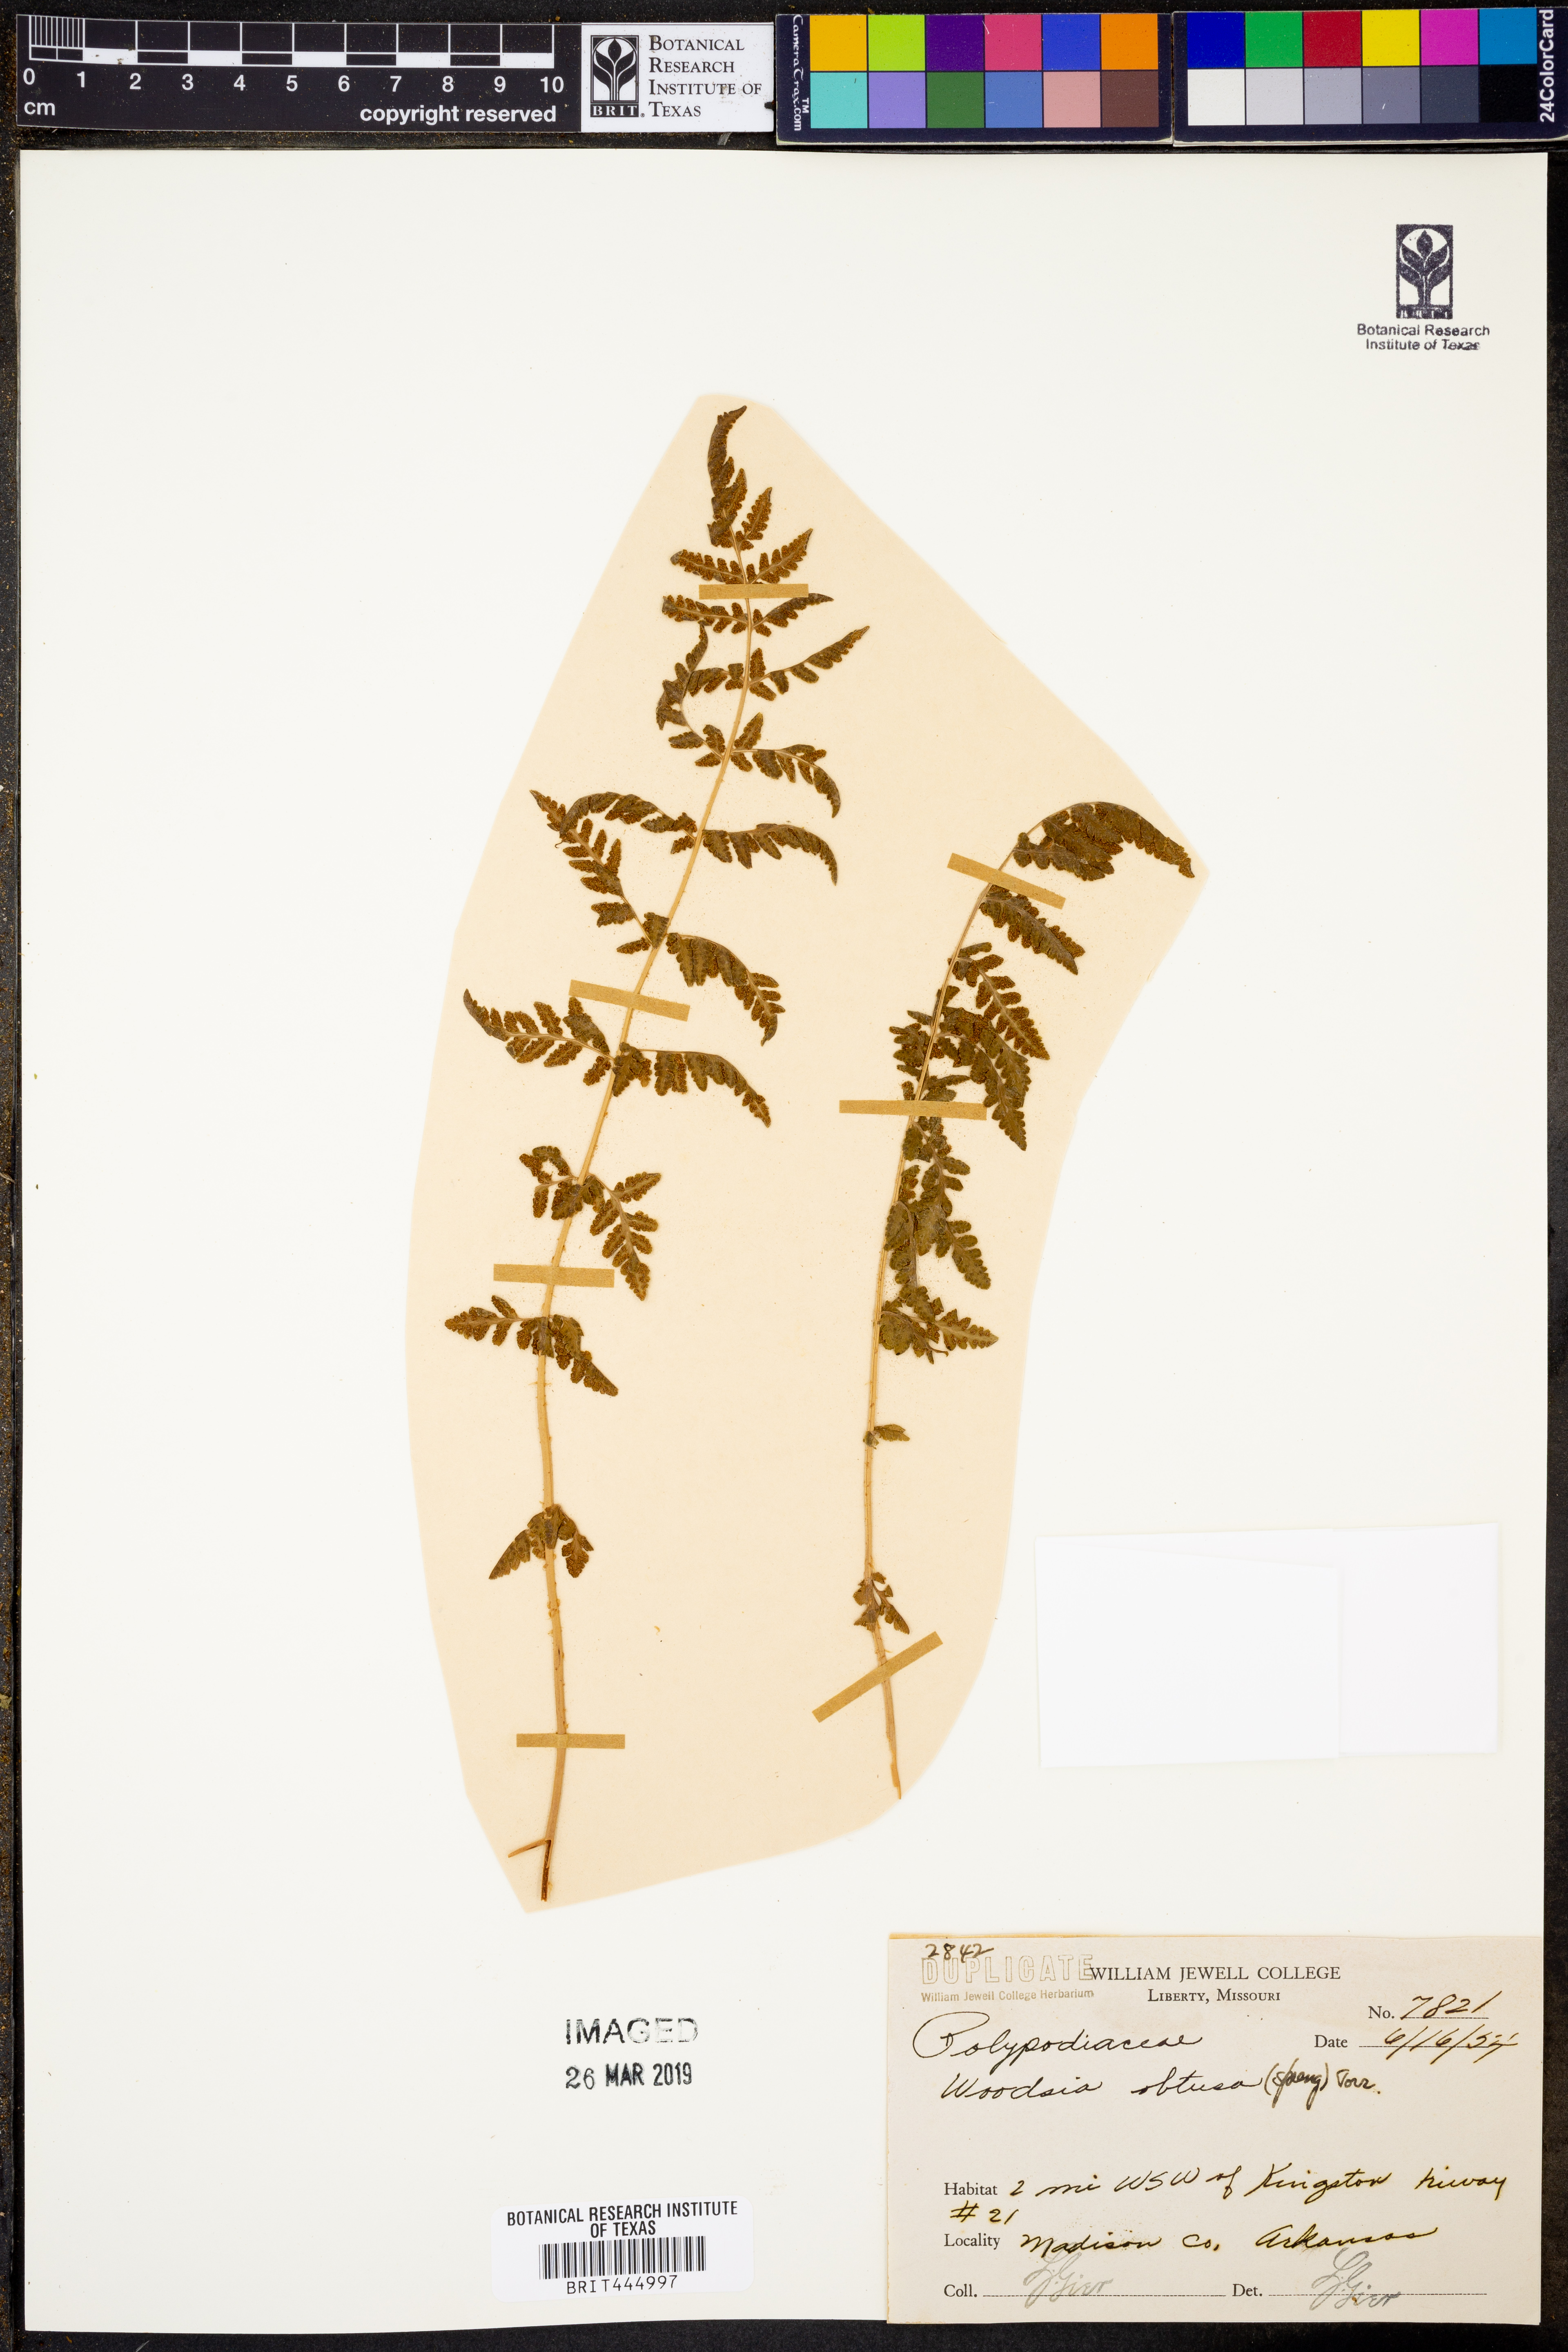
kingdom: Plantae
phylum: Tracheophyta
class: Polypodiopsida
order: Polypodiales
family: Woodsiaceae
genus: Physematium
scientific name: Physematium obtusum
